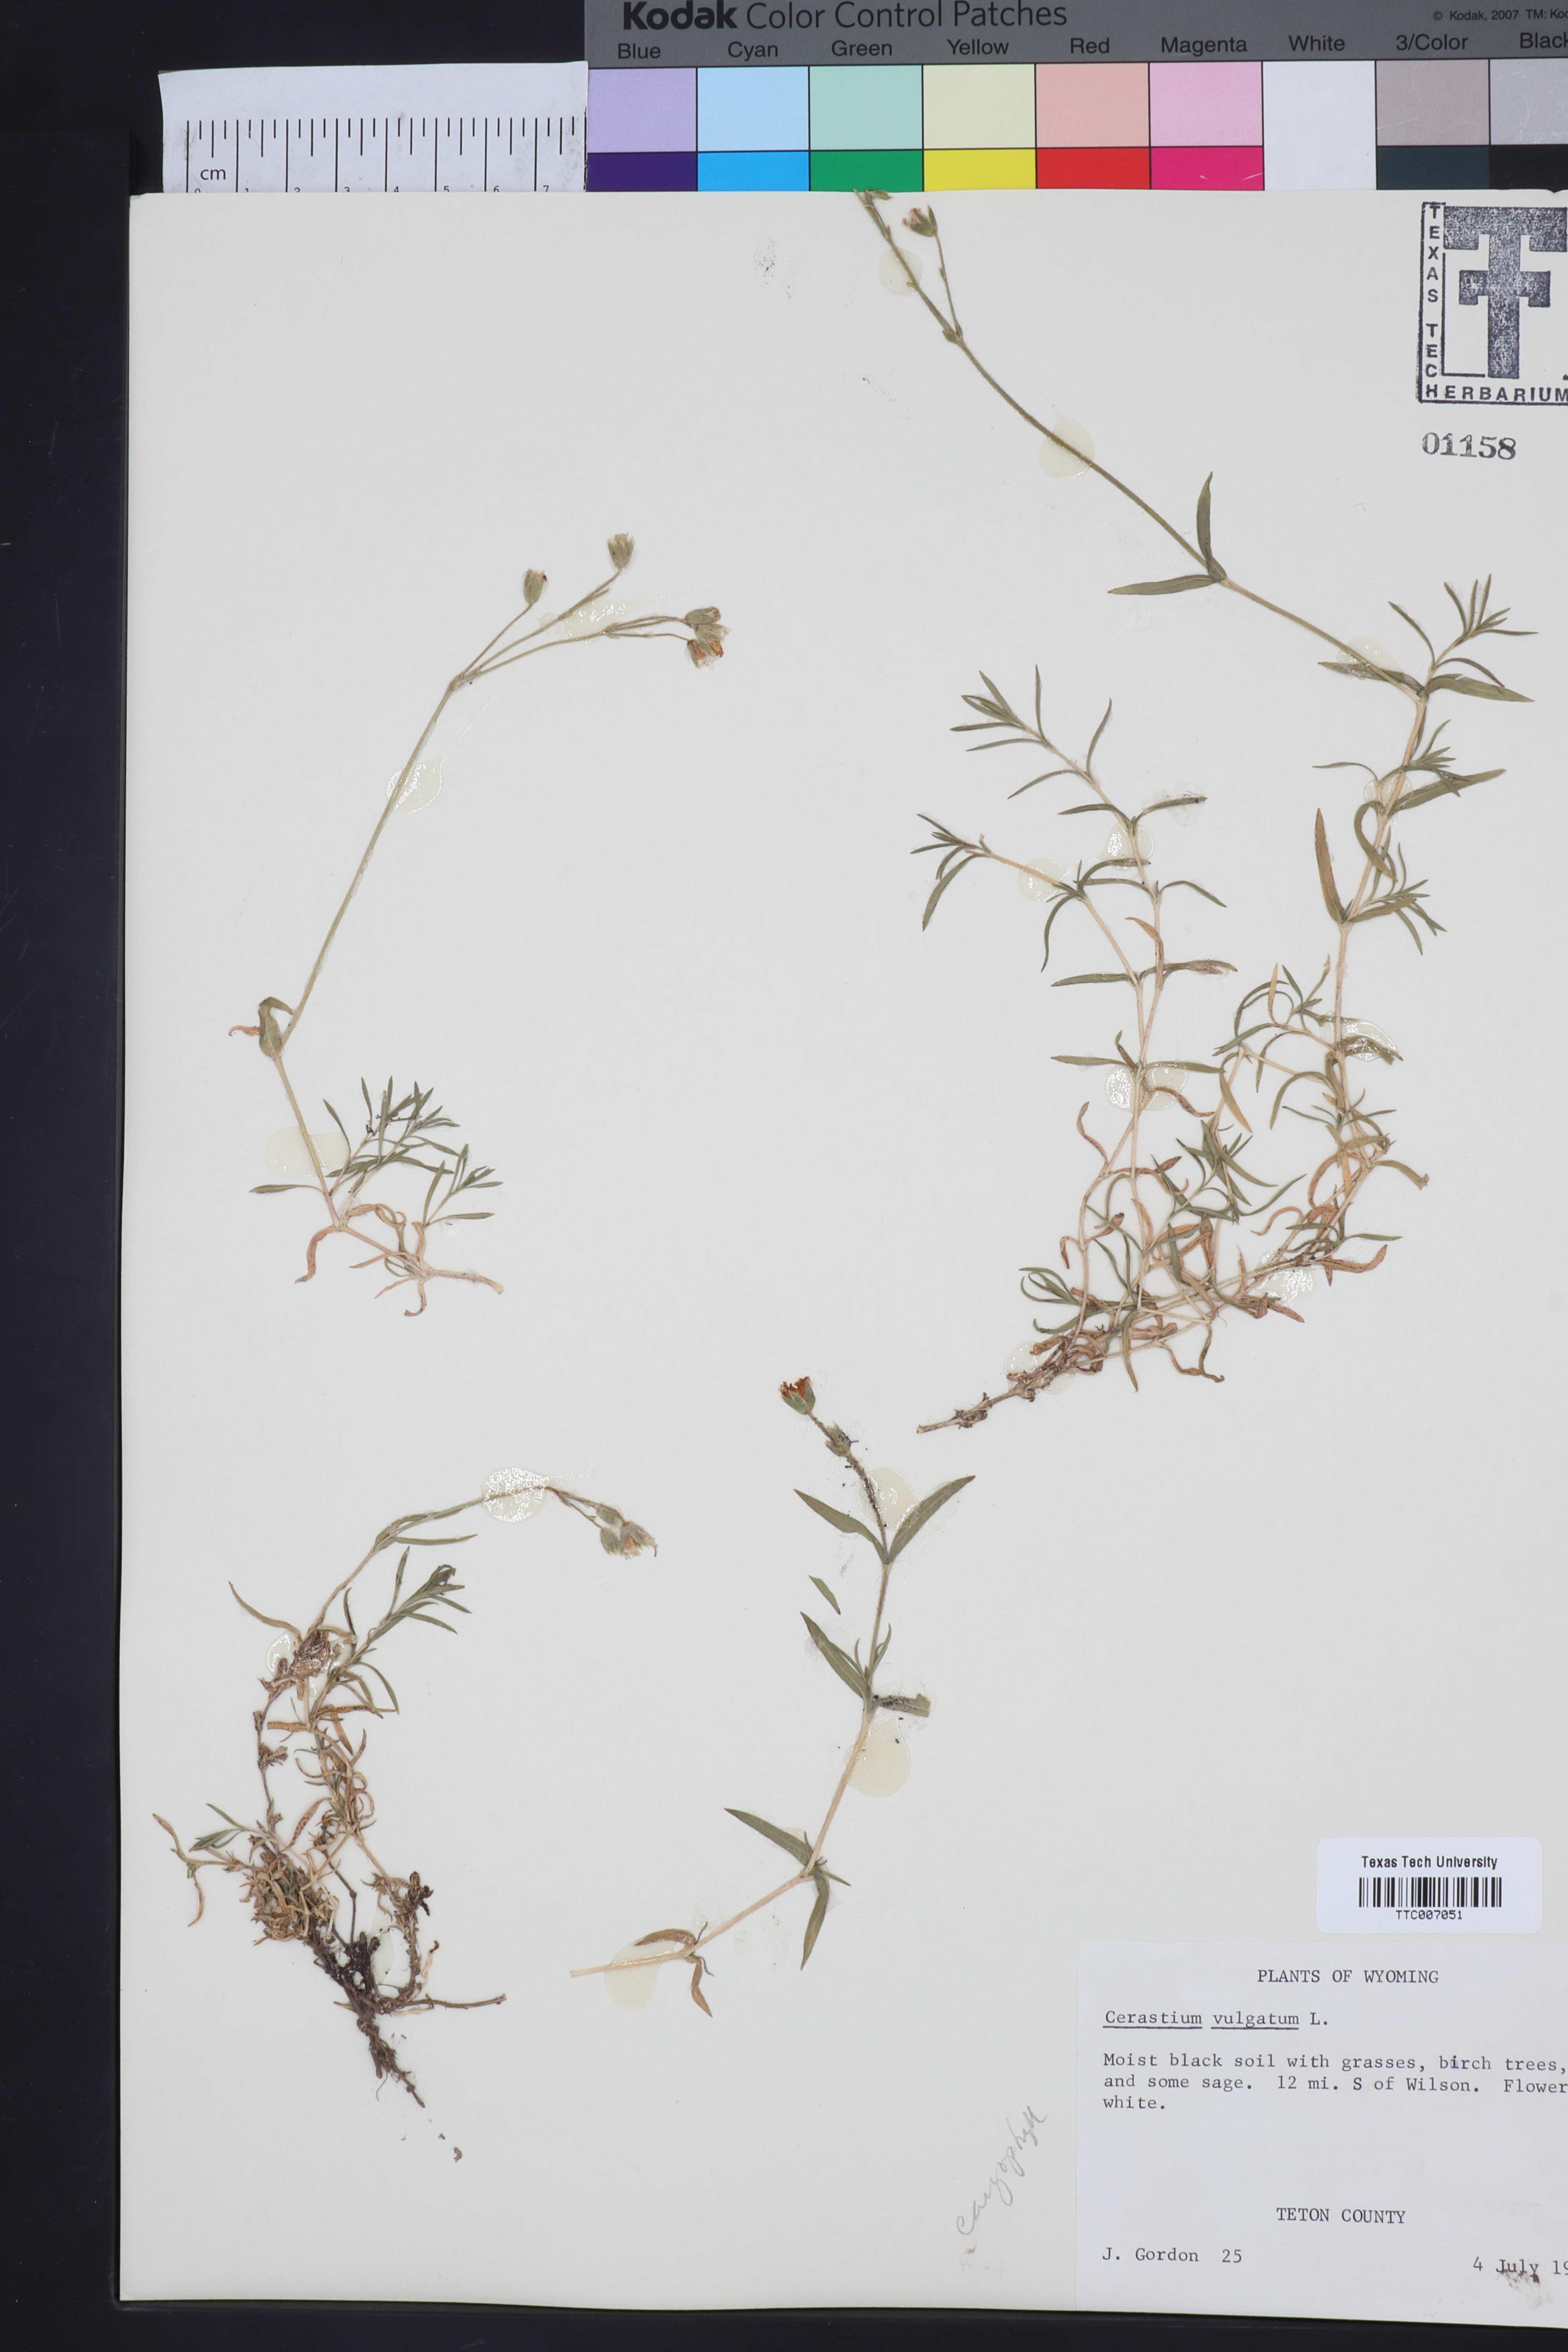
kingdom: Plantae
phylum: Tracheophyta
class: Magnoliopsida
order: Caryophyllales
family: Caryophyllaceae
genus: Cerastium
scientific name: Cerastium
